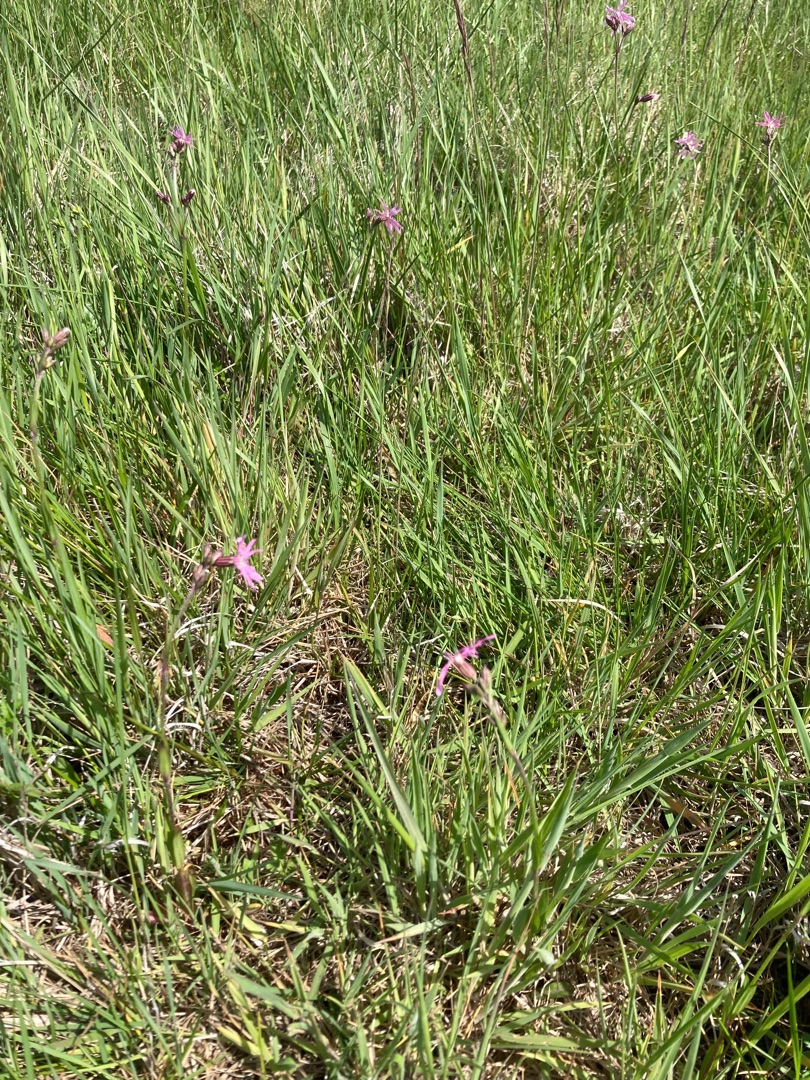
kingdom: Plantae
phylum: Tracheophyta
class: Magnoliopsida
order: Caryophyllales
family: Caryophyllaceae
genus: Silene
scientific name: Silene flos-cuculi
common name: Trævlekrone
